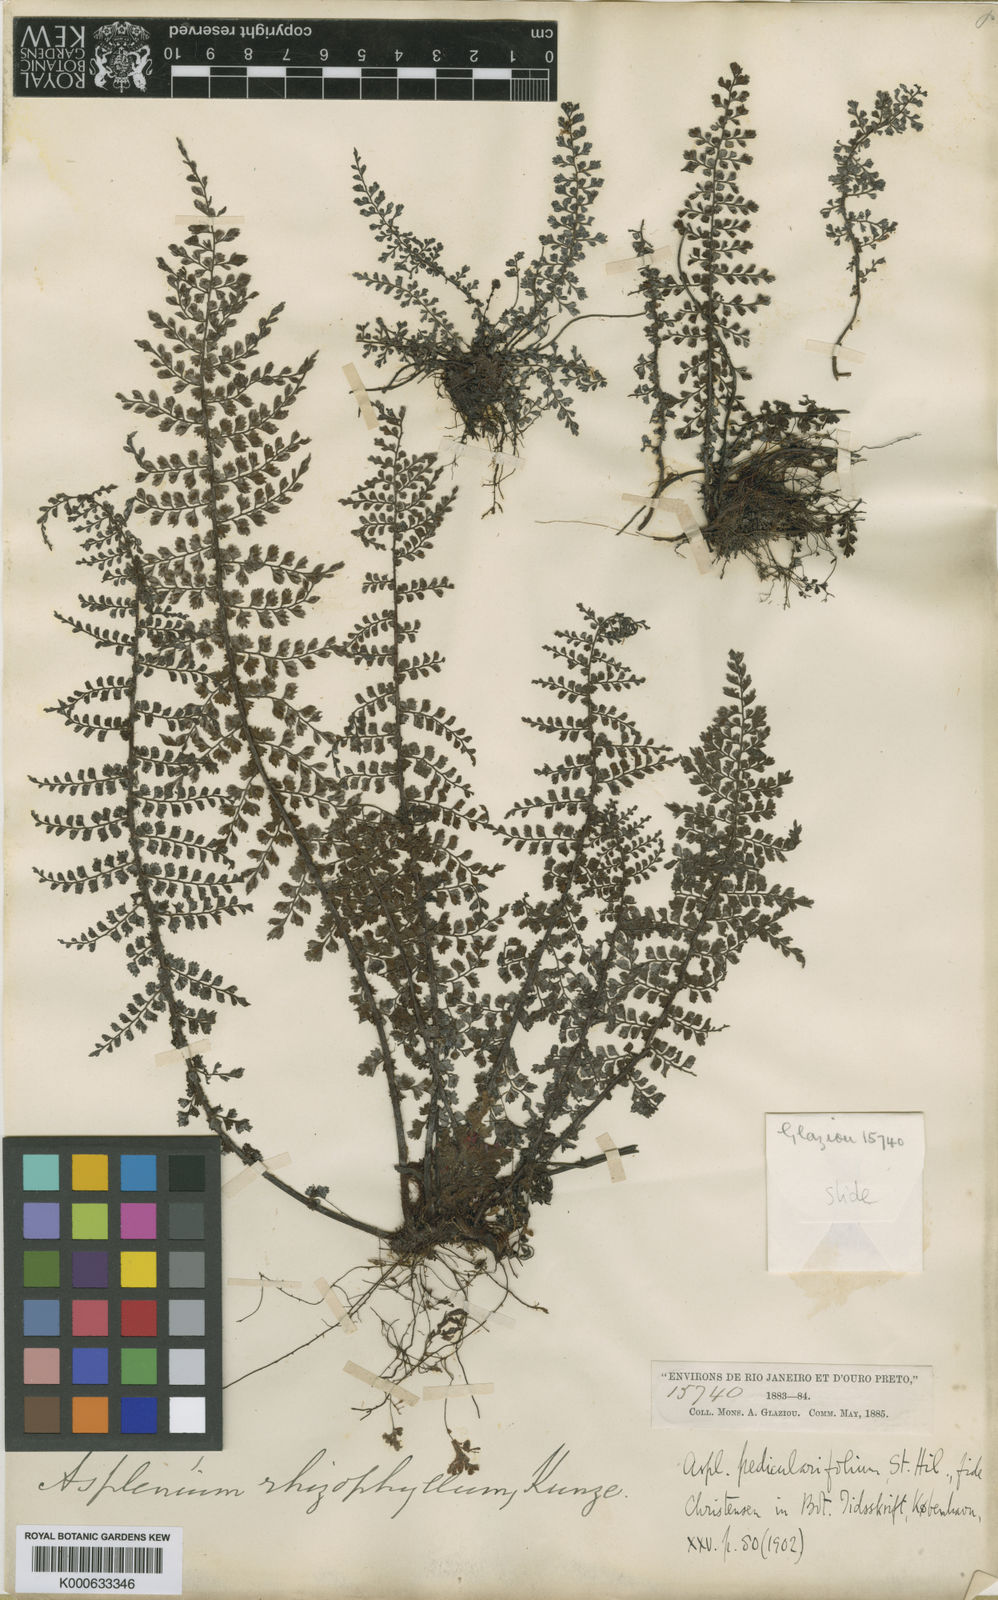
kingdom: Plantae
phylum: Tracheophyta
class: Polypodiopsida
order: Polypodiales
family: Aspleniaceae
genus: Asplenium
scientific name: Asplenium pedicularifolium
